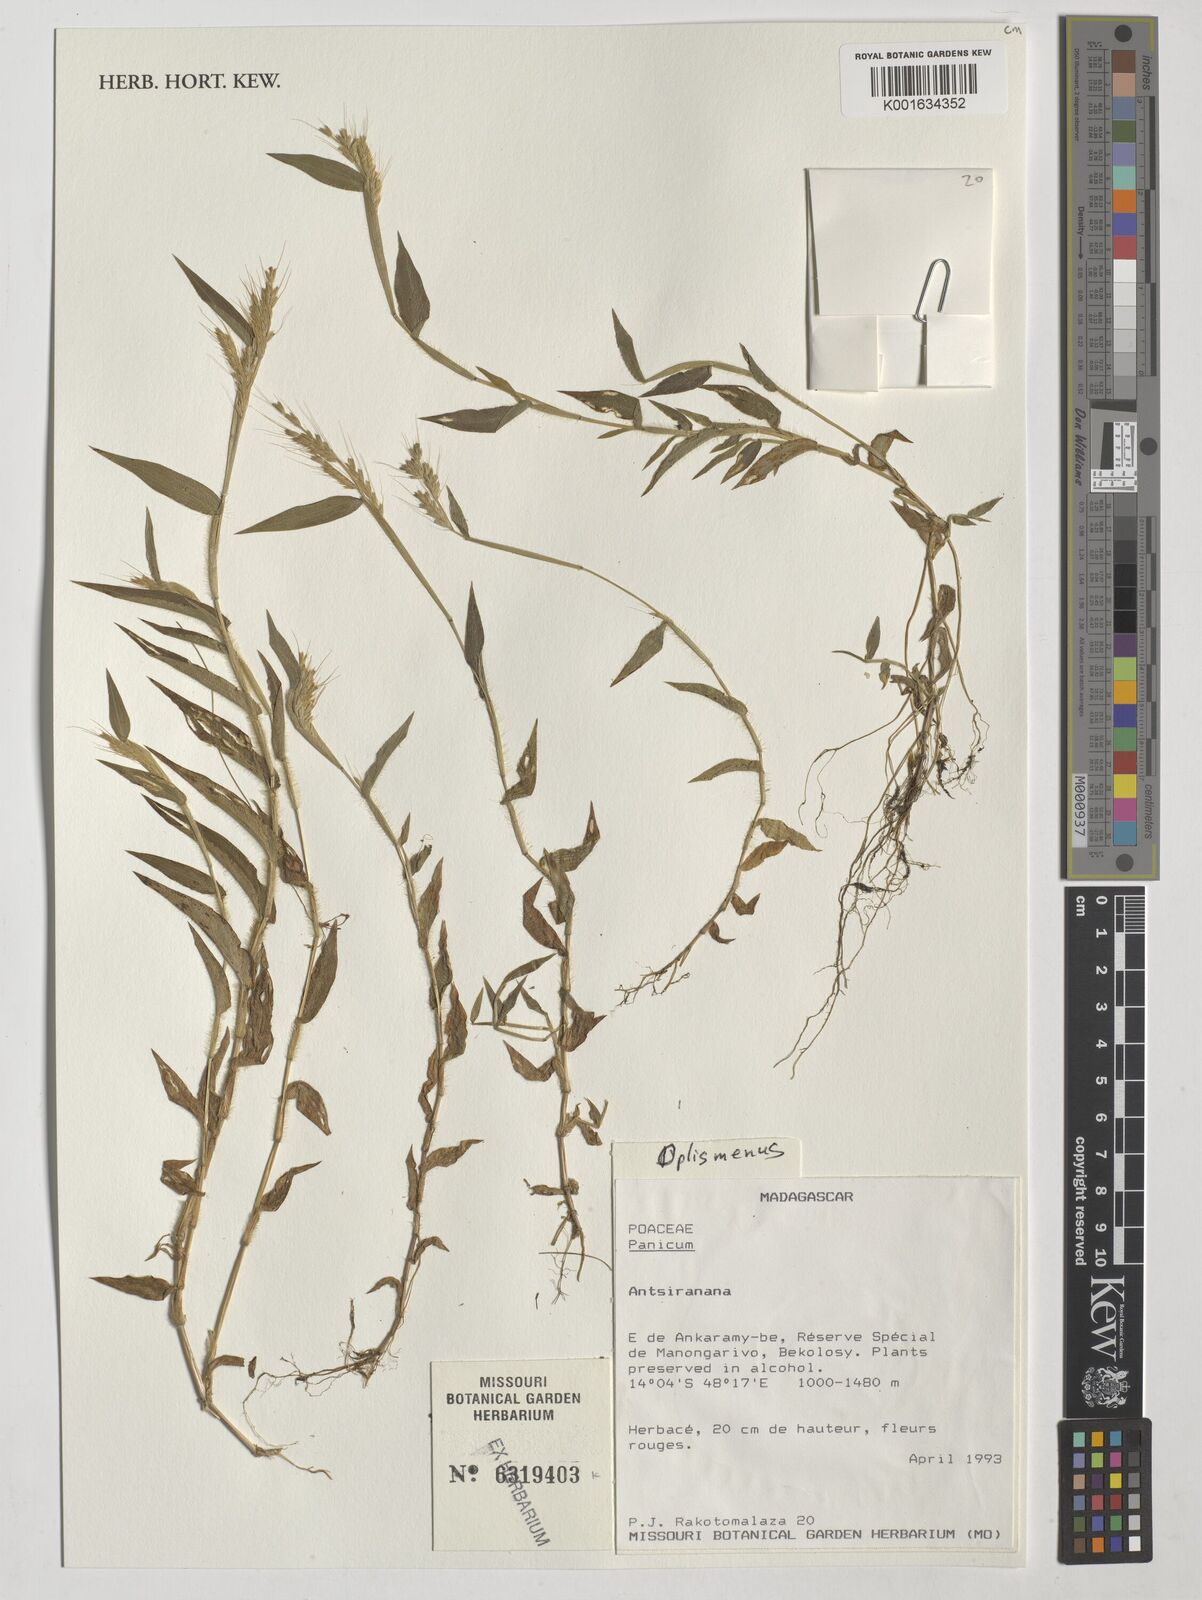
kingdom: Plantae
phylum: Tracheophyta
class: Liliopsida
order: Poales
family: Poaceae
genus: Oplismenus
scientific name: Oplismenus
